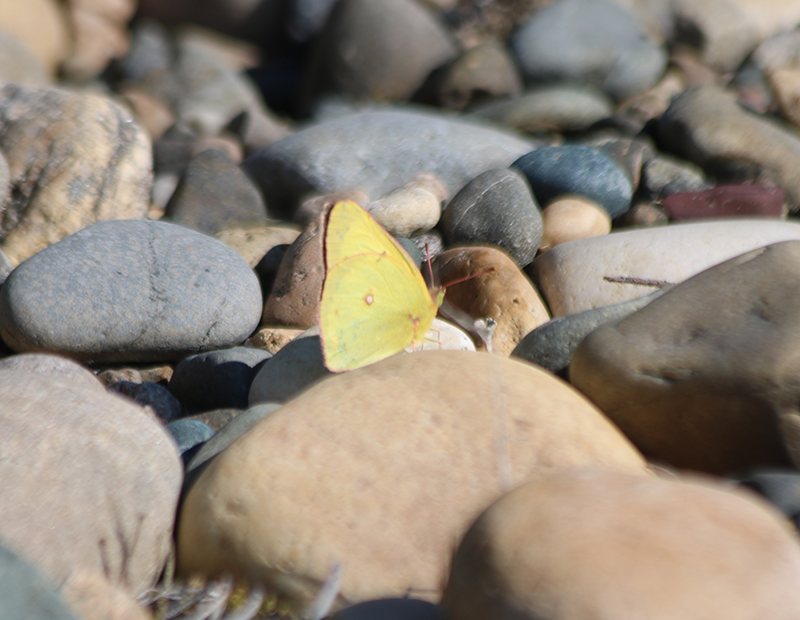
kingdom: Animalia
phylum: Arthropoda
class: Insecta
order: Lepidoptera
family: Pieridae
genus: Colias
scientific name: Colias philodice
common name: Clouded Sulphur
